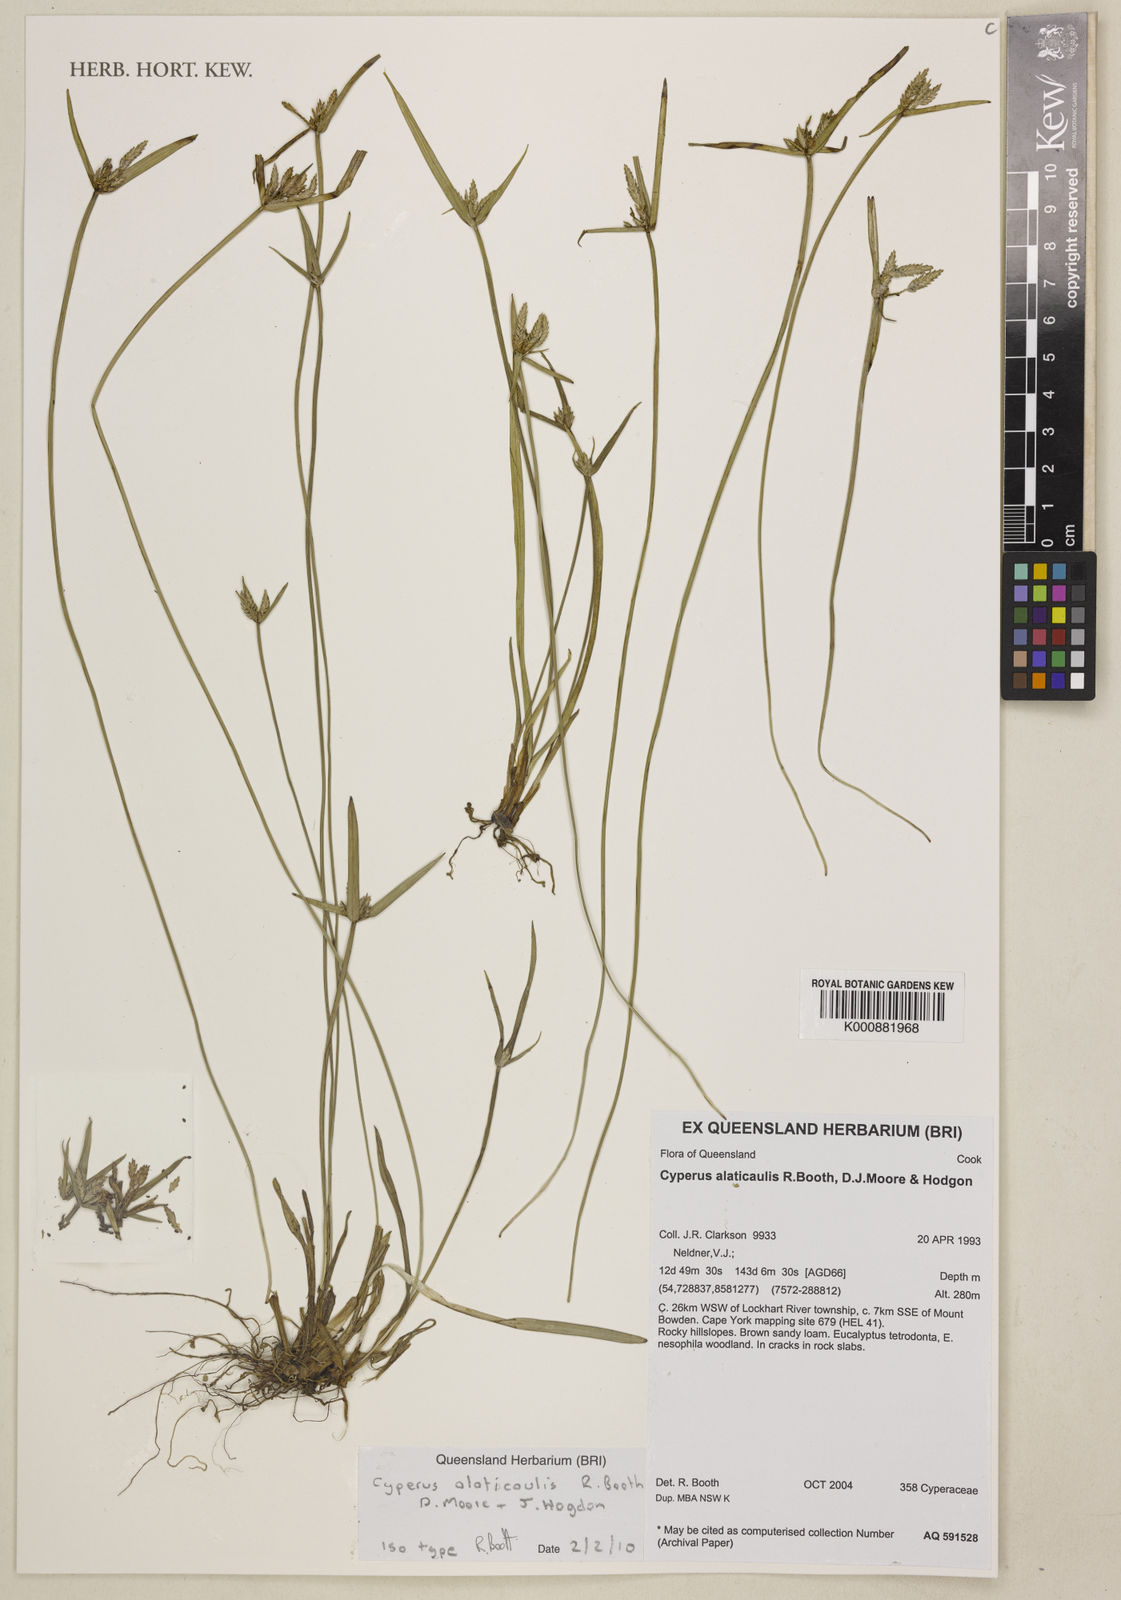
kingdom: Plantae
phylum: Tracheophyta
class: Liliopsida
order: Poales
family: Cyperaceae
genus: Cyperus
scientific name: Cyperus alaticaulis
